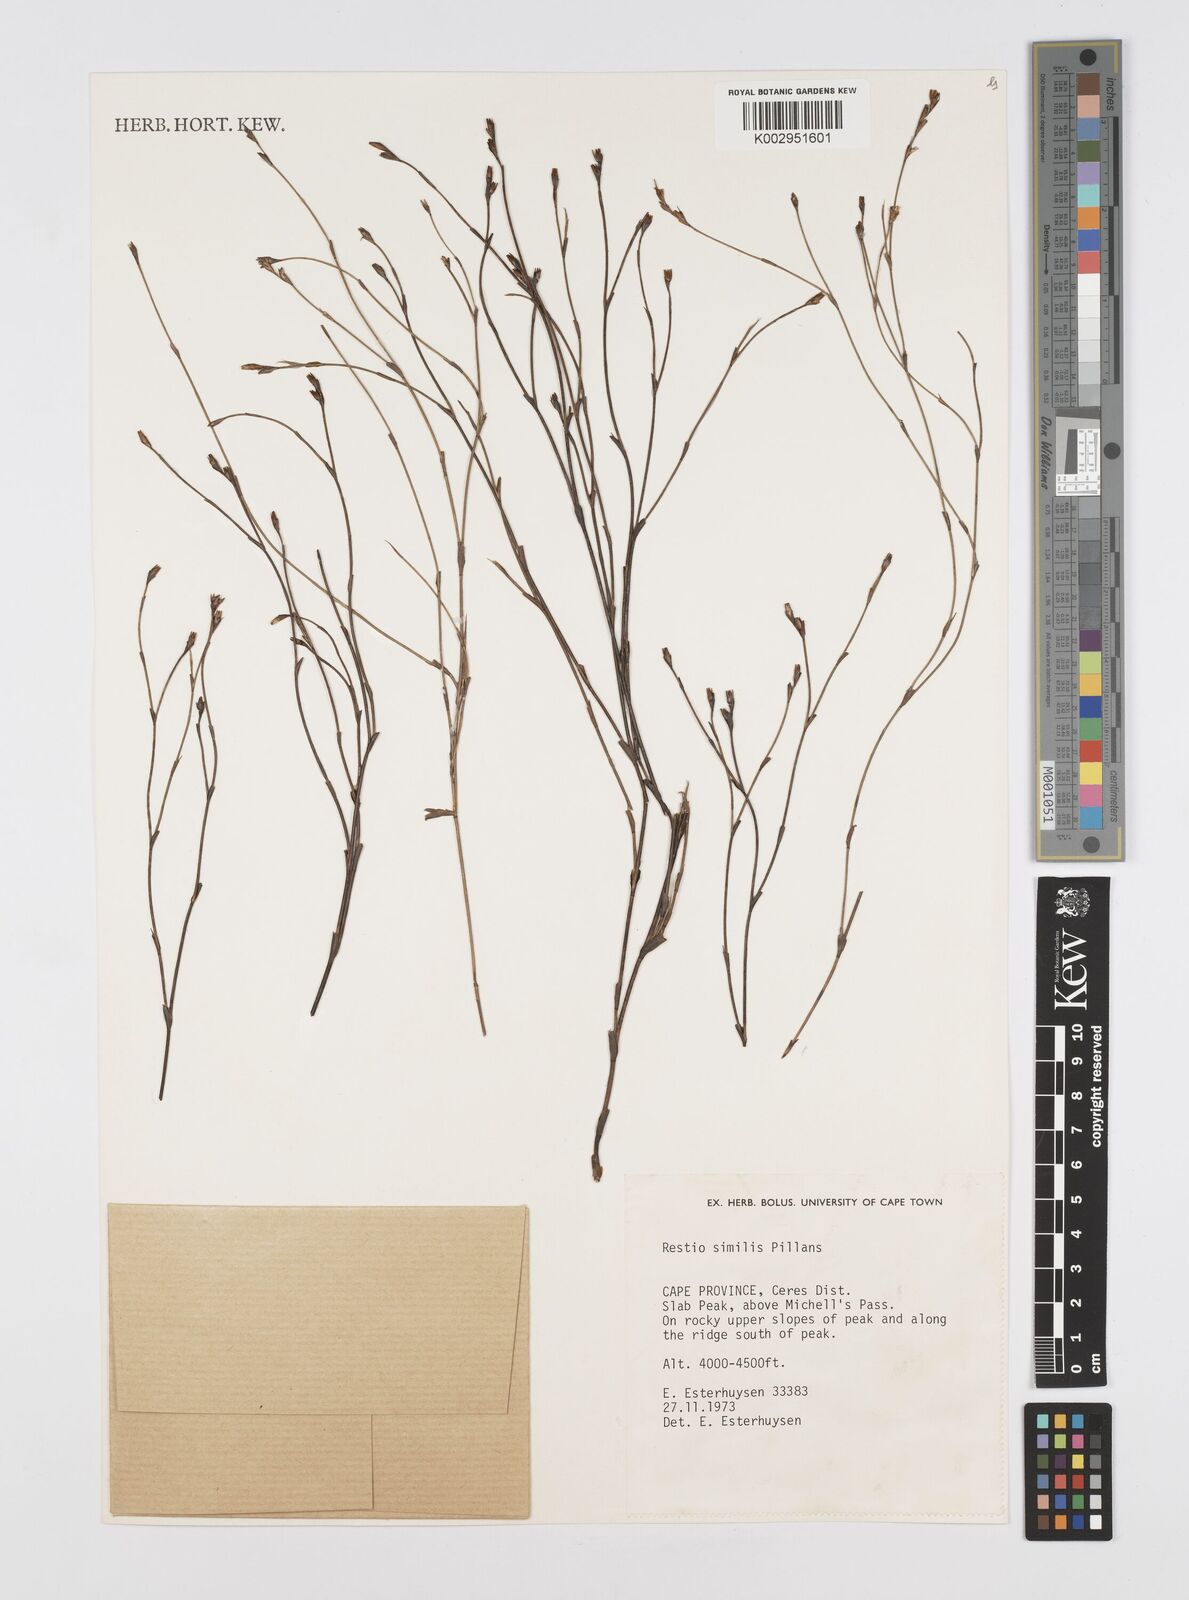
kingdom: Plantae
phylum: Tracheophyta
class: Liliopsida
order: Poales
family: Restionaceae
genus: Restio
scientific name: Restio similis
